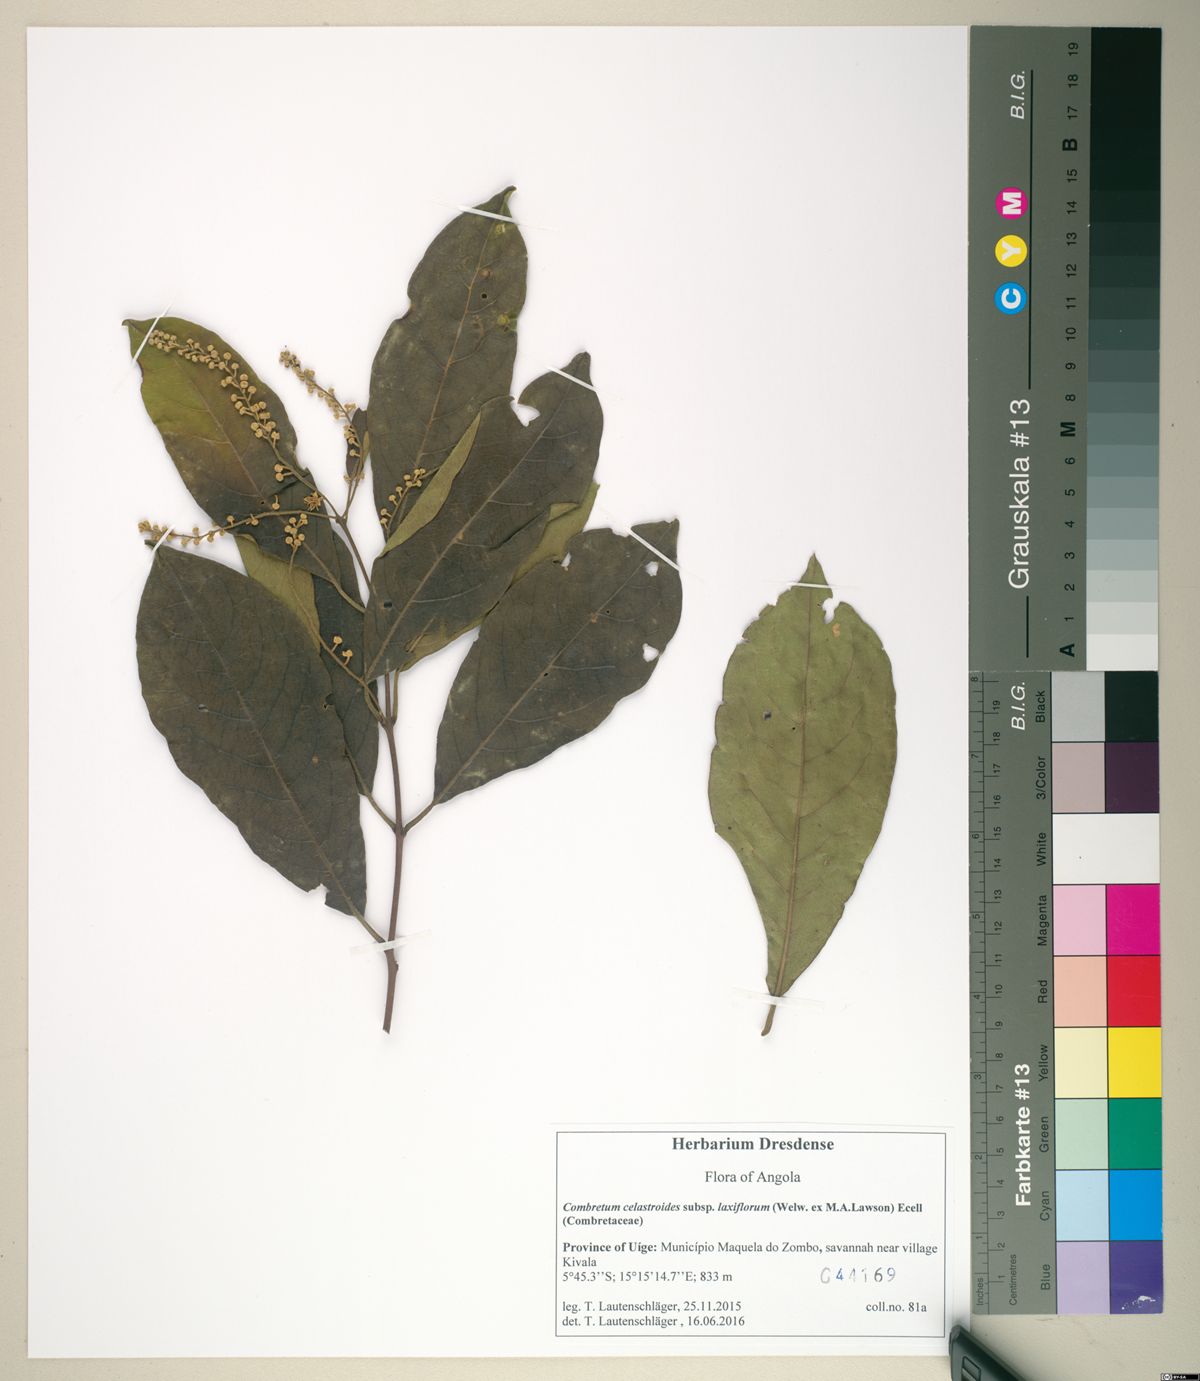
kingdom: Plantae
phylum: Tracheophyta
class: Magnoliopsida
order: Myrtales
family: Combretaceae
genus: Combretum
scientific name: Combretum celastroides
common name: Jesse-bush combretum
